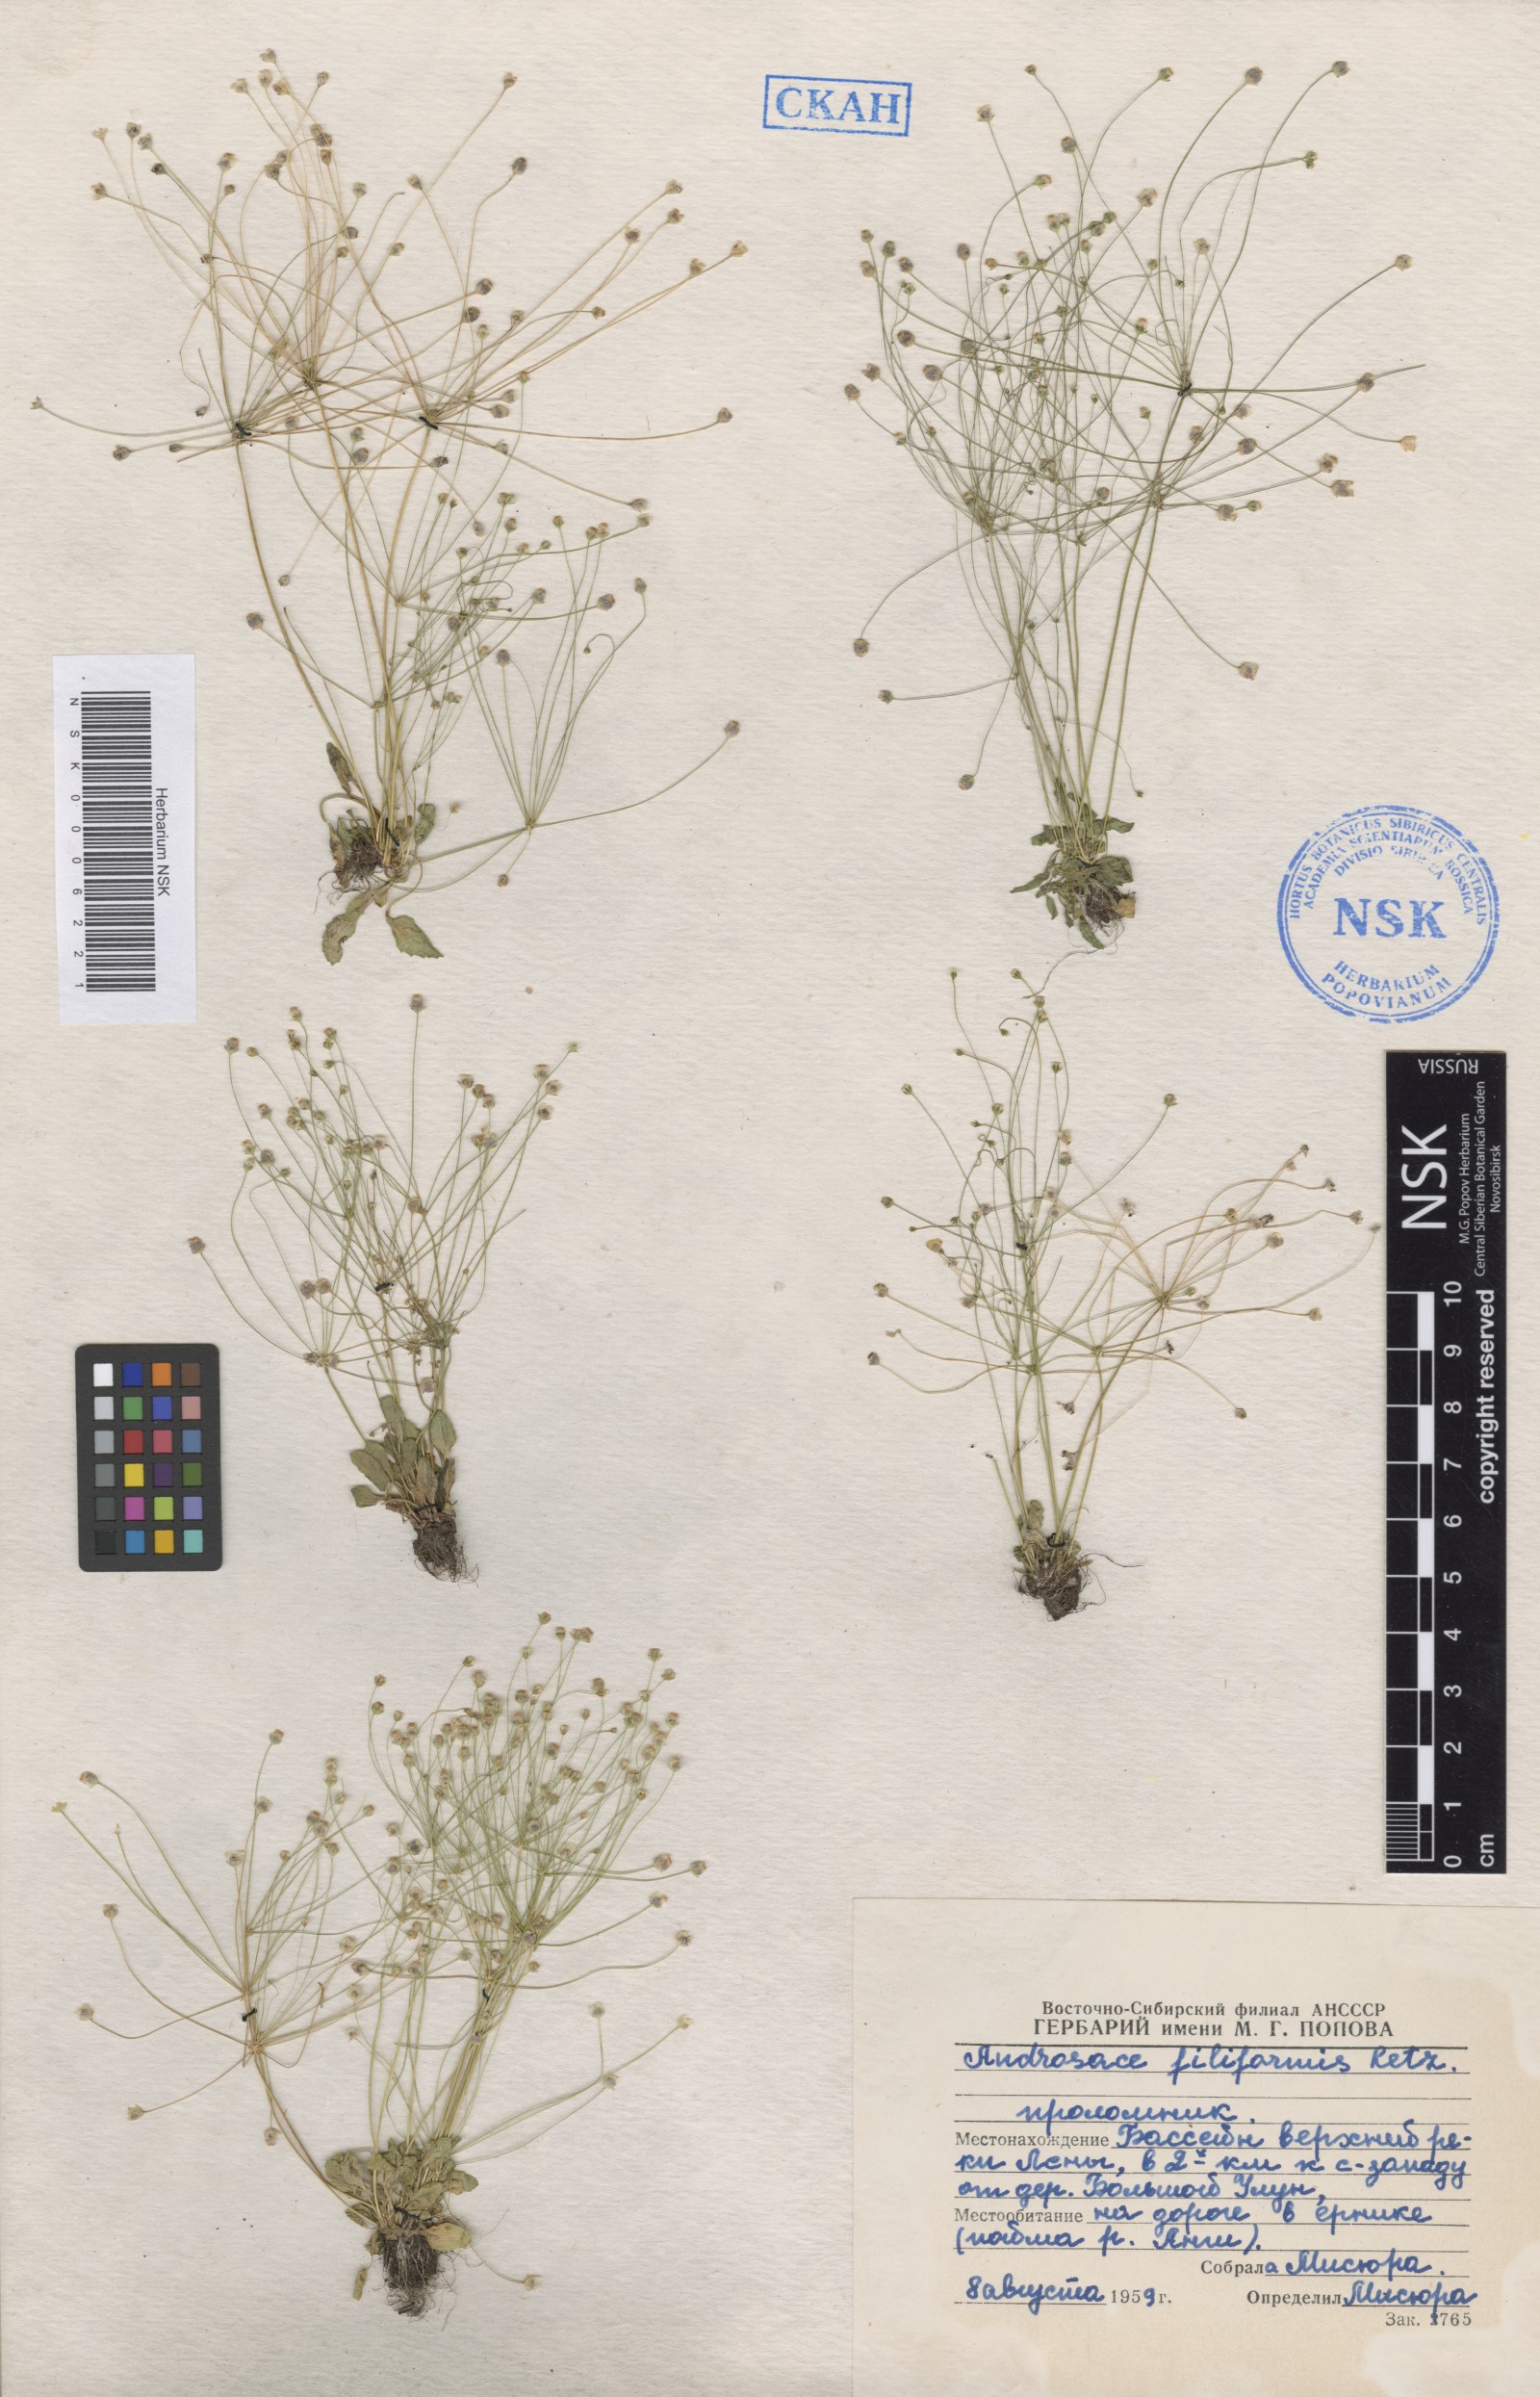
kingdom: Plantae
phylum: Tracheophyta
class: Magnoliopsida
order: Ericales
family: Primulaceae
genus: Androsace
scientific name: Androsace filiformis
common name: Filiform rock jasmine
